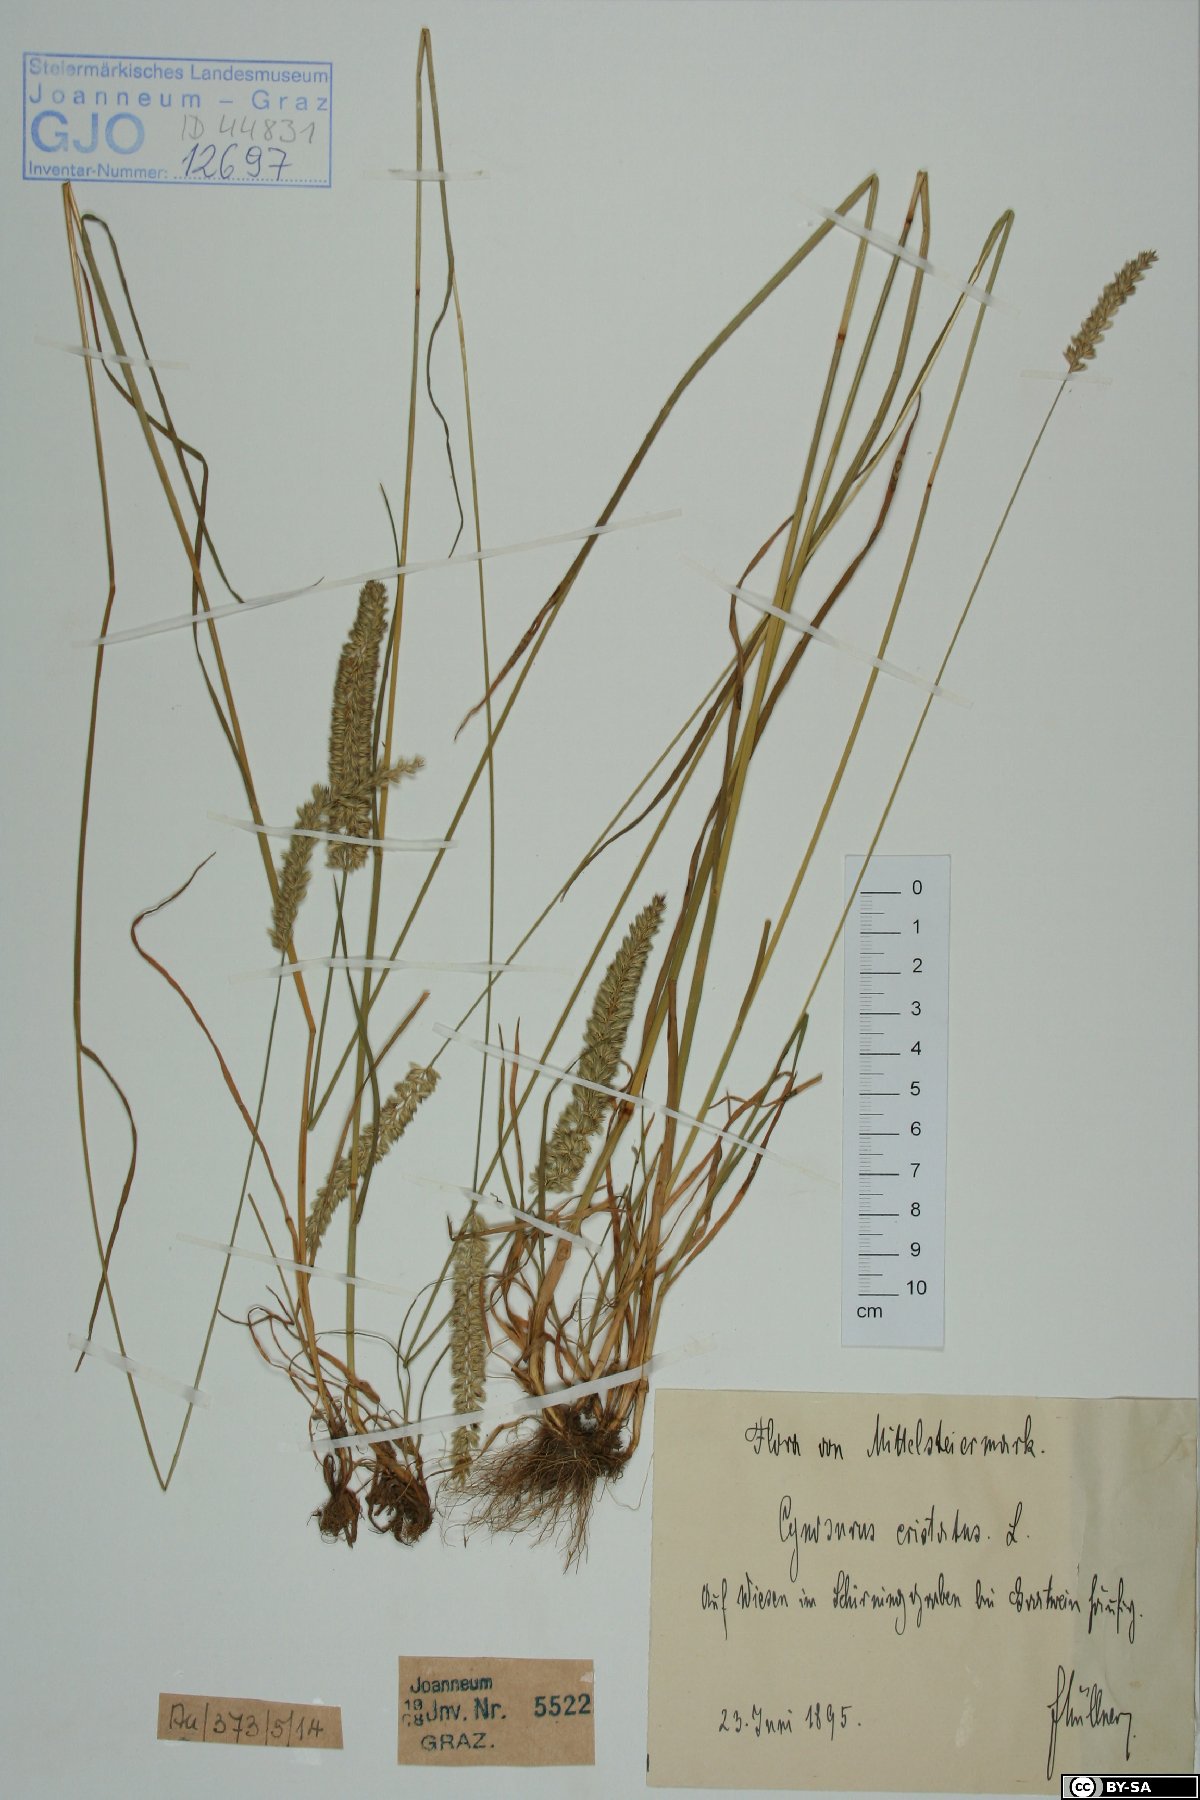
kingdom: Plantae
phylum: Tracheophyta
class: Liliopsida
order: Poales
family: Poaceae
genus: Cynosurus
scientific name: Cynosurus cristatus
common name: Crested dog's-tail
